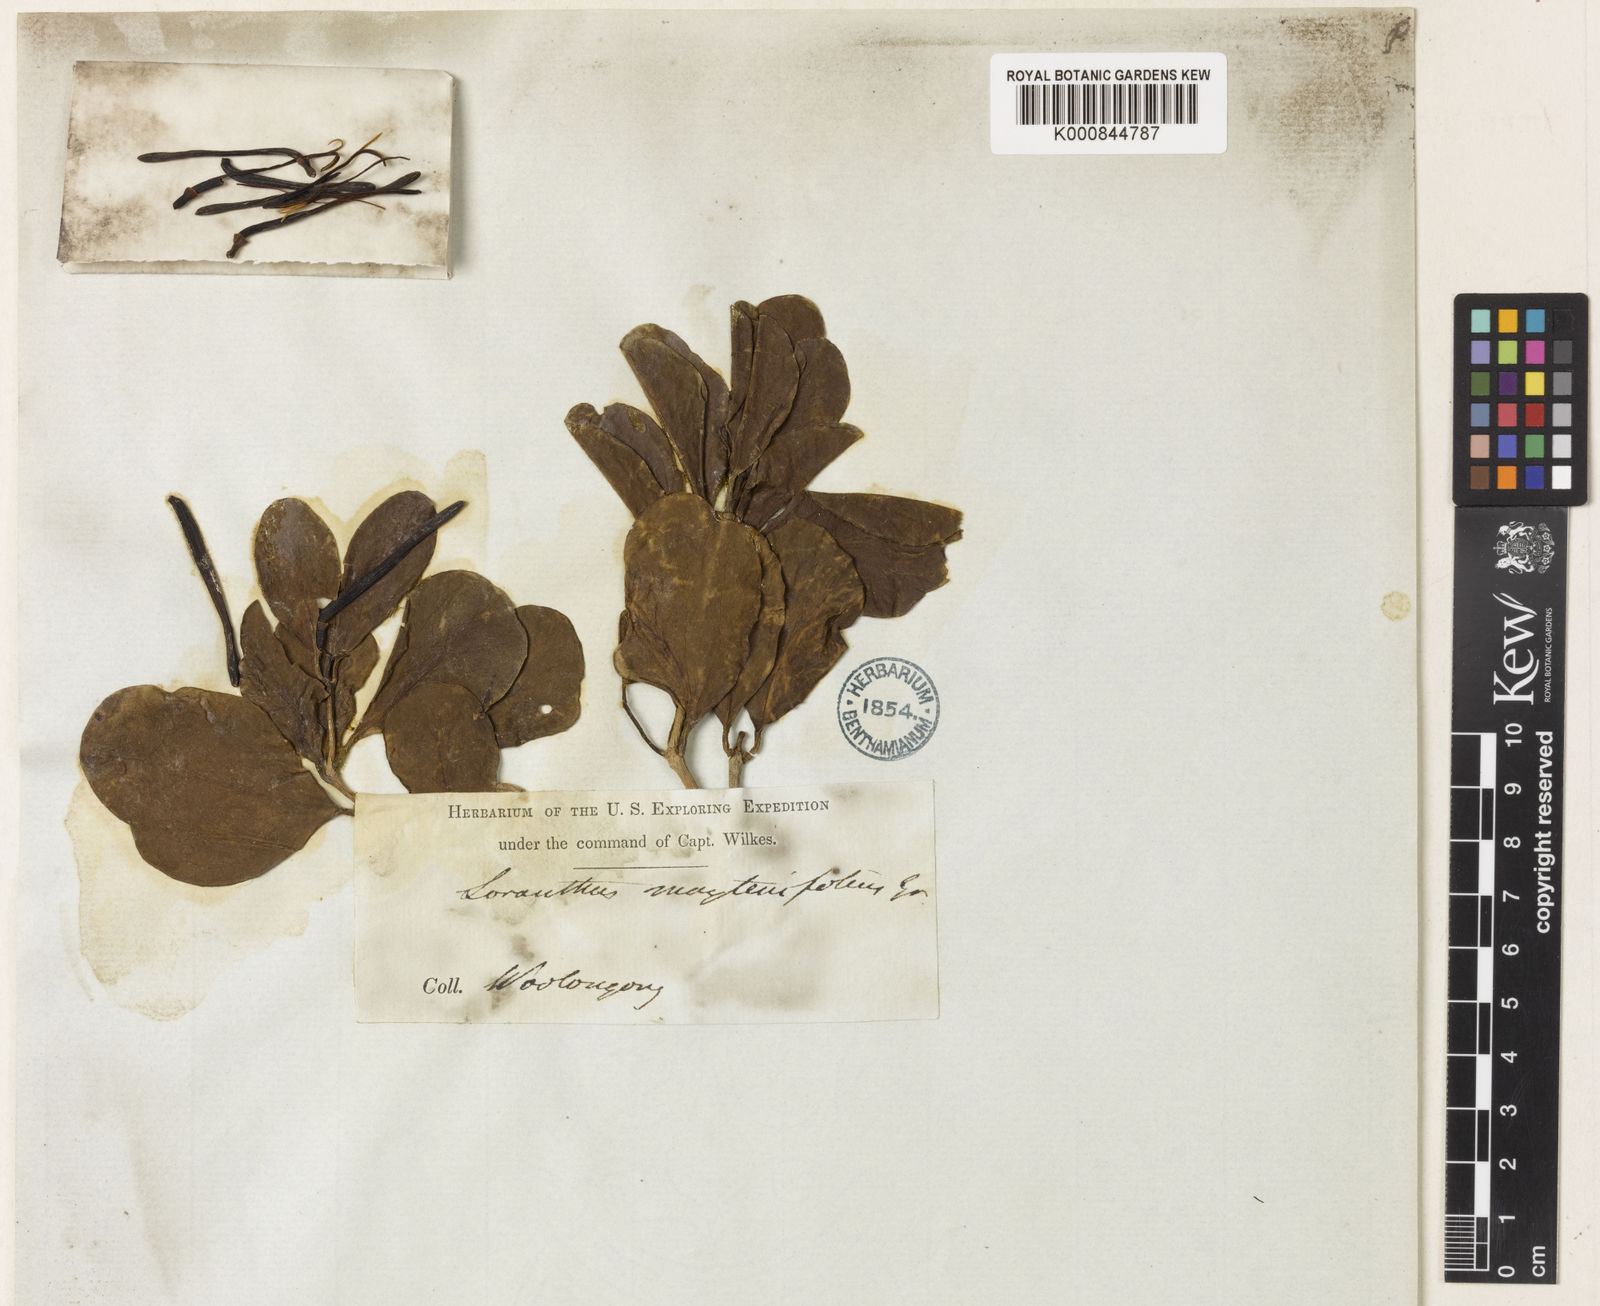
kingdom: Plantae
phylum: Tracheophyta
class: Magnoliopsida
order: Santalales
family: Loranthaceae
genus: Benthamina
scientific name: Benthamina
